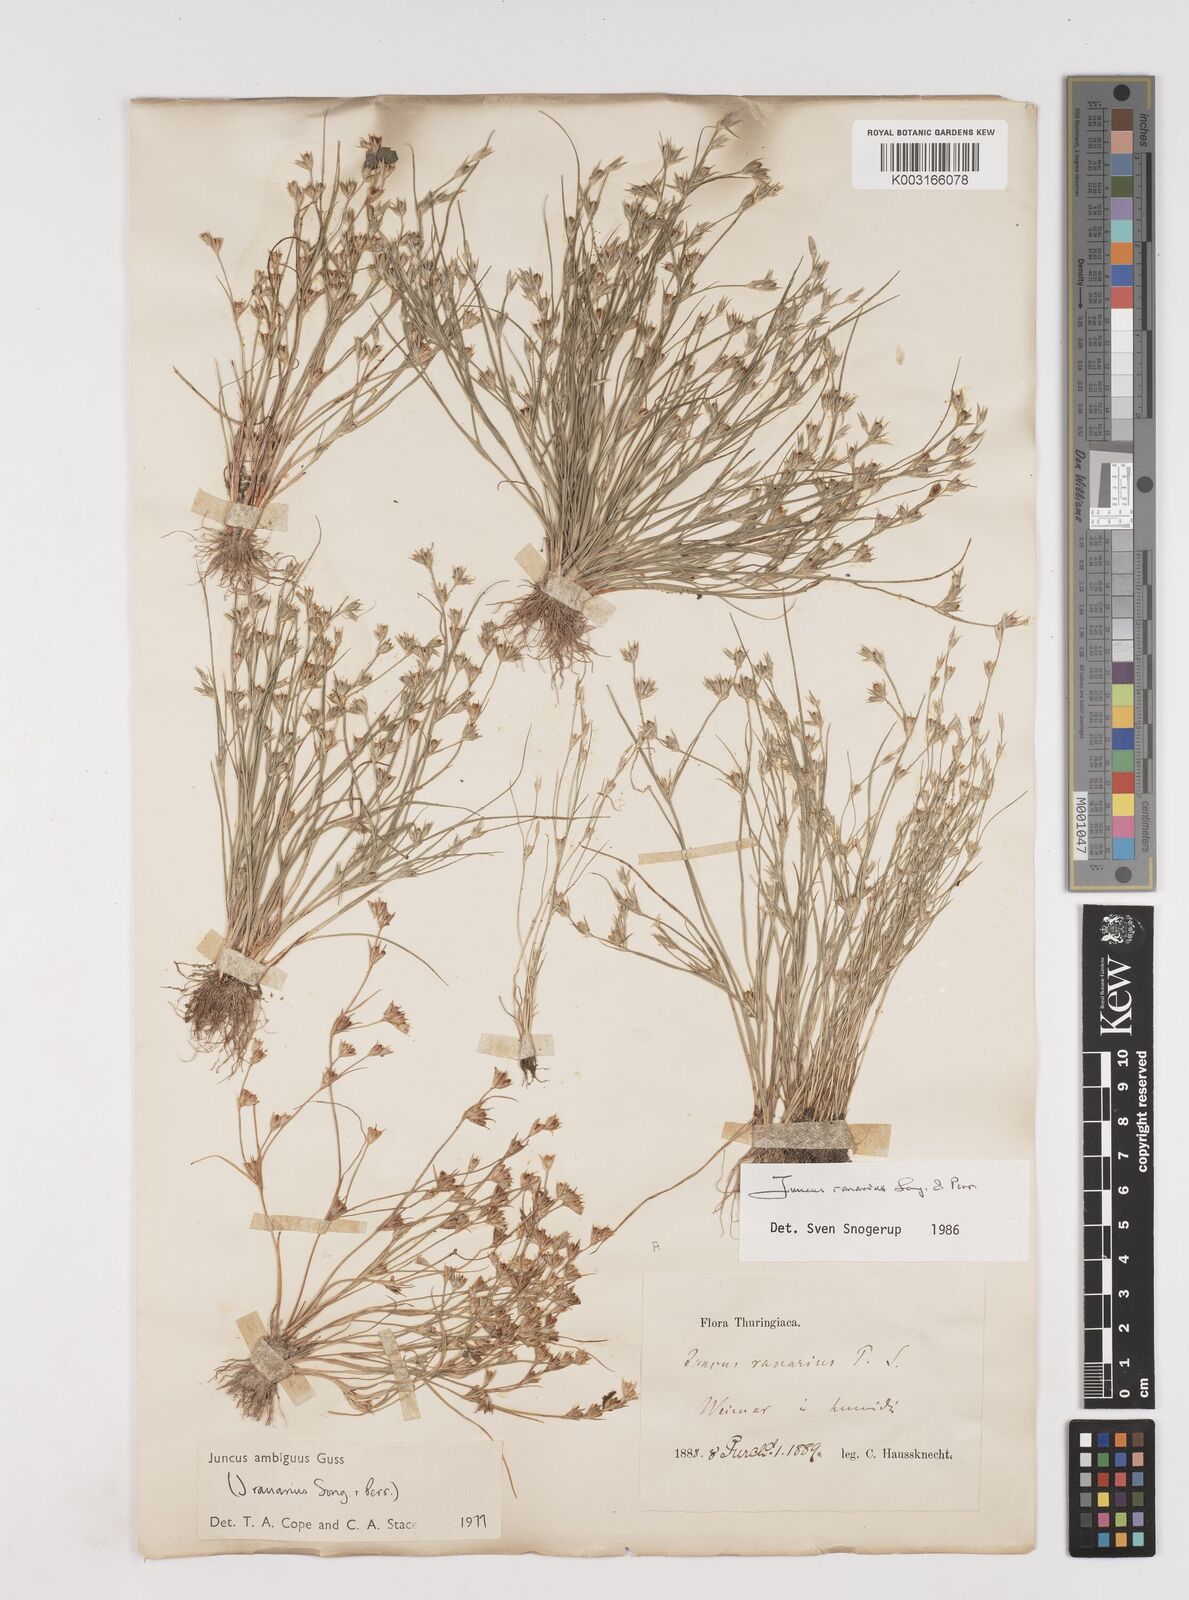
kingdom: Plantae
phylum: Tracheophyta
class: Liliopsida
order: Poales
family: Juncaceae
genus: Juncus
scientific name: Juncus hybridus
